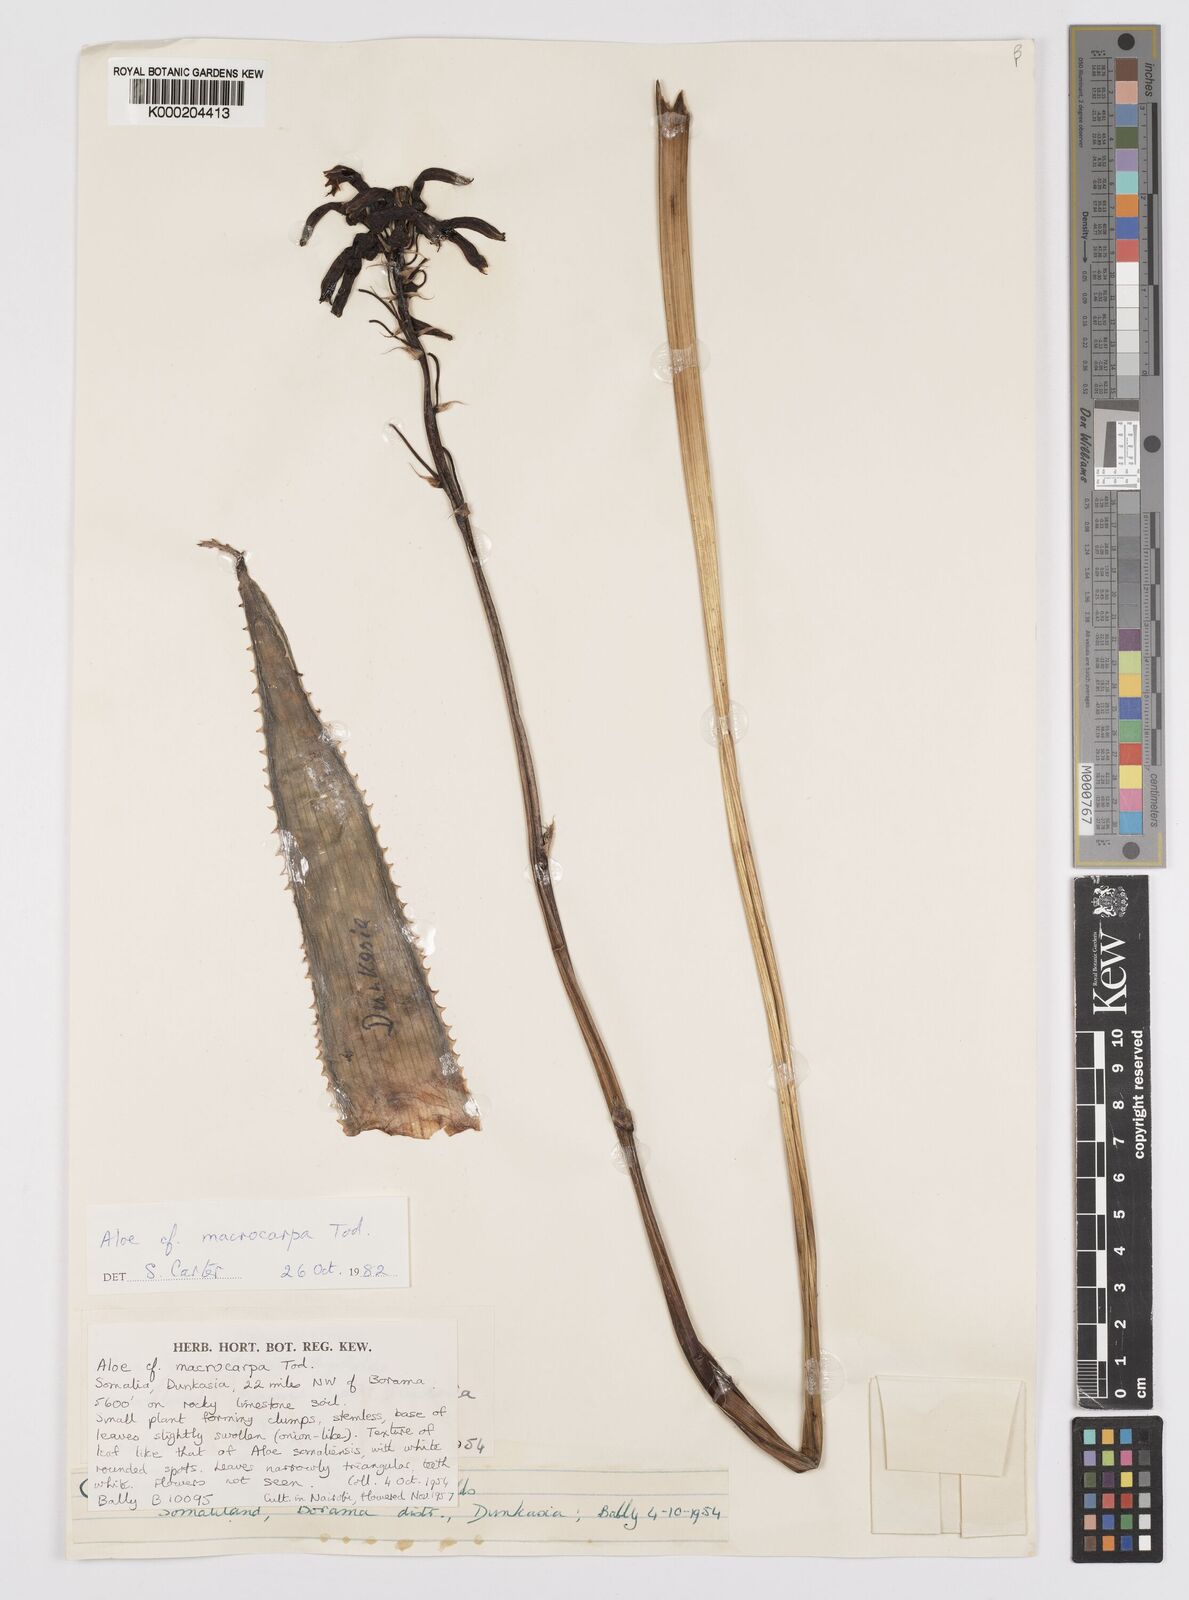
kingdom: Plantae
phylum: Tracheophyta
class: Liliopsida
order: Asparagales
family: Asphodelaceae
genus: Aloe
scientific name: Aloe macrocarpa
